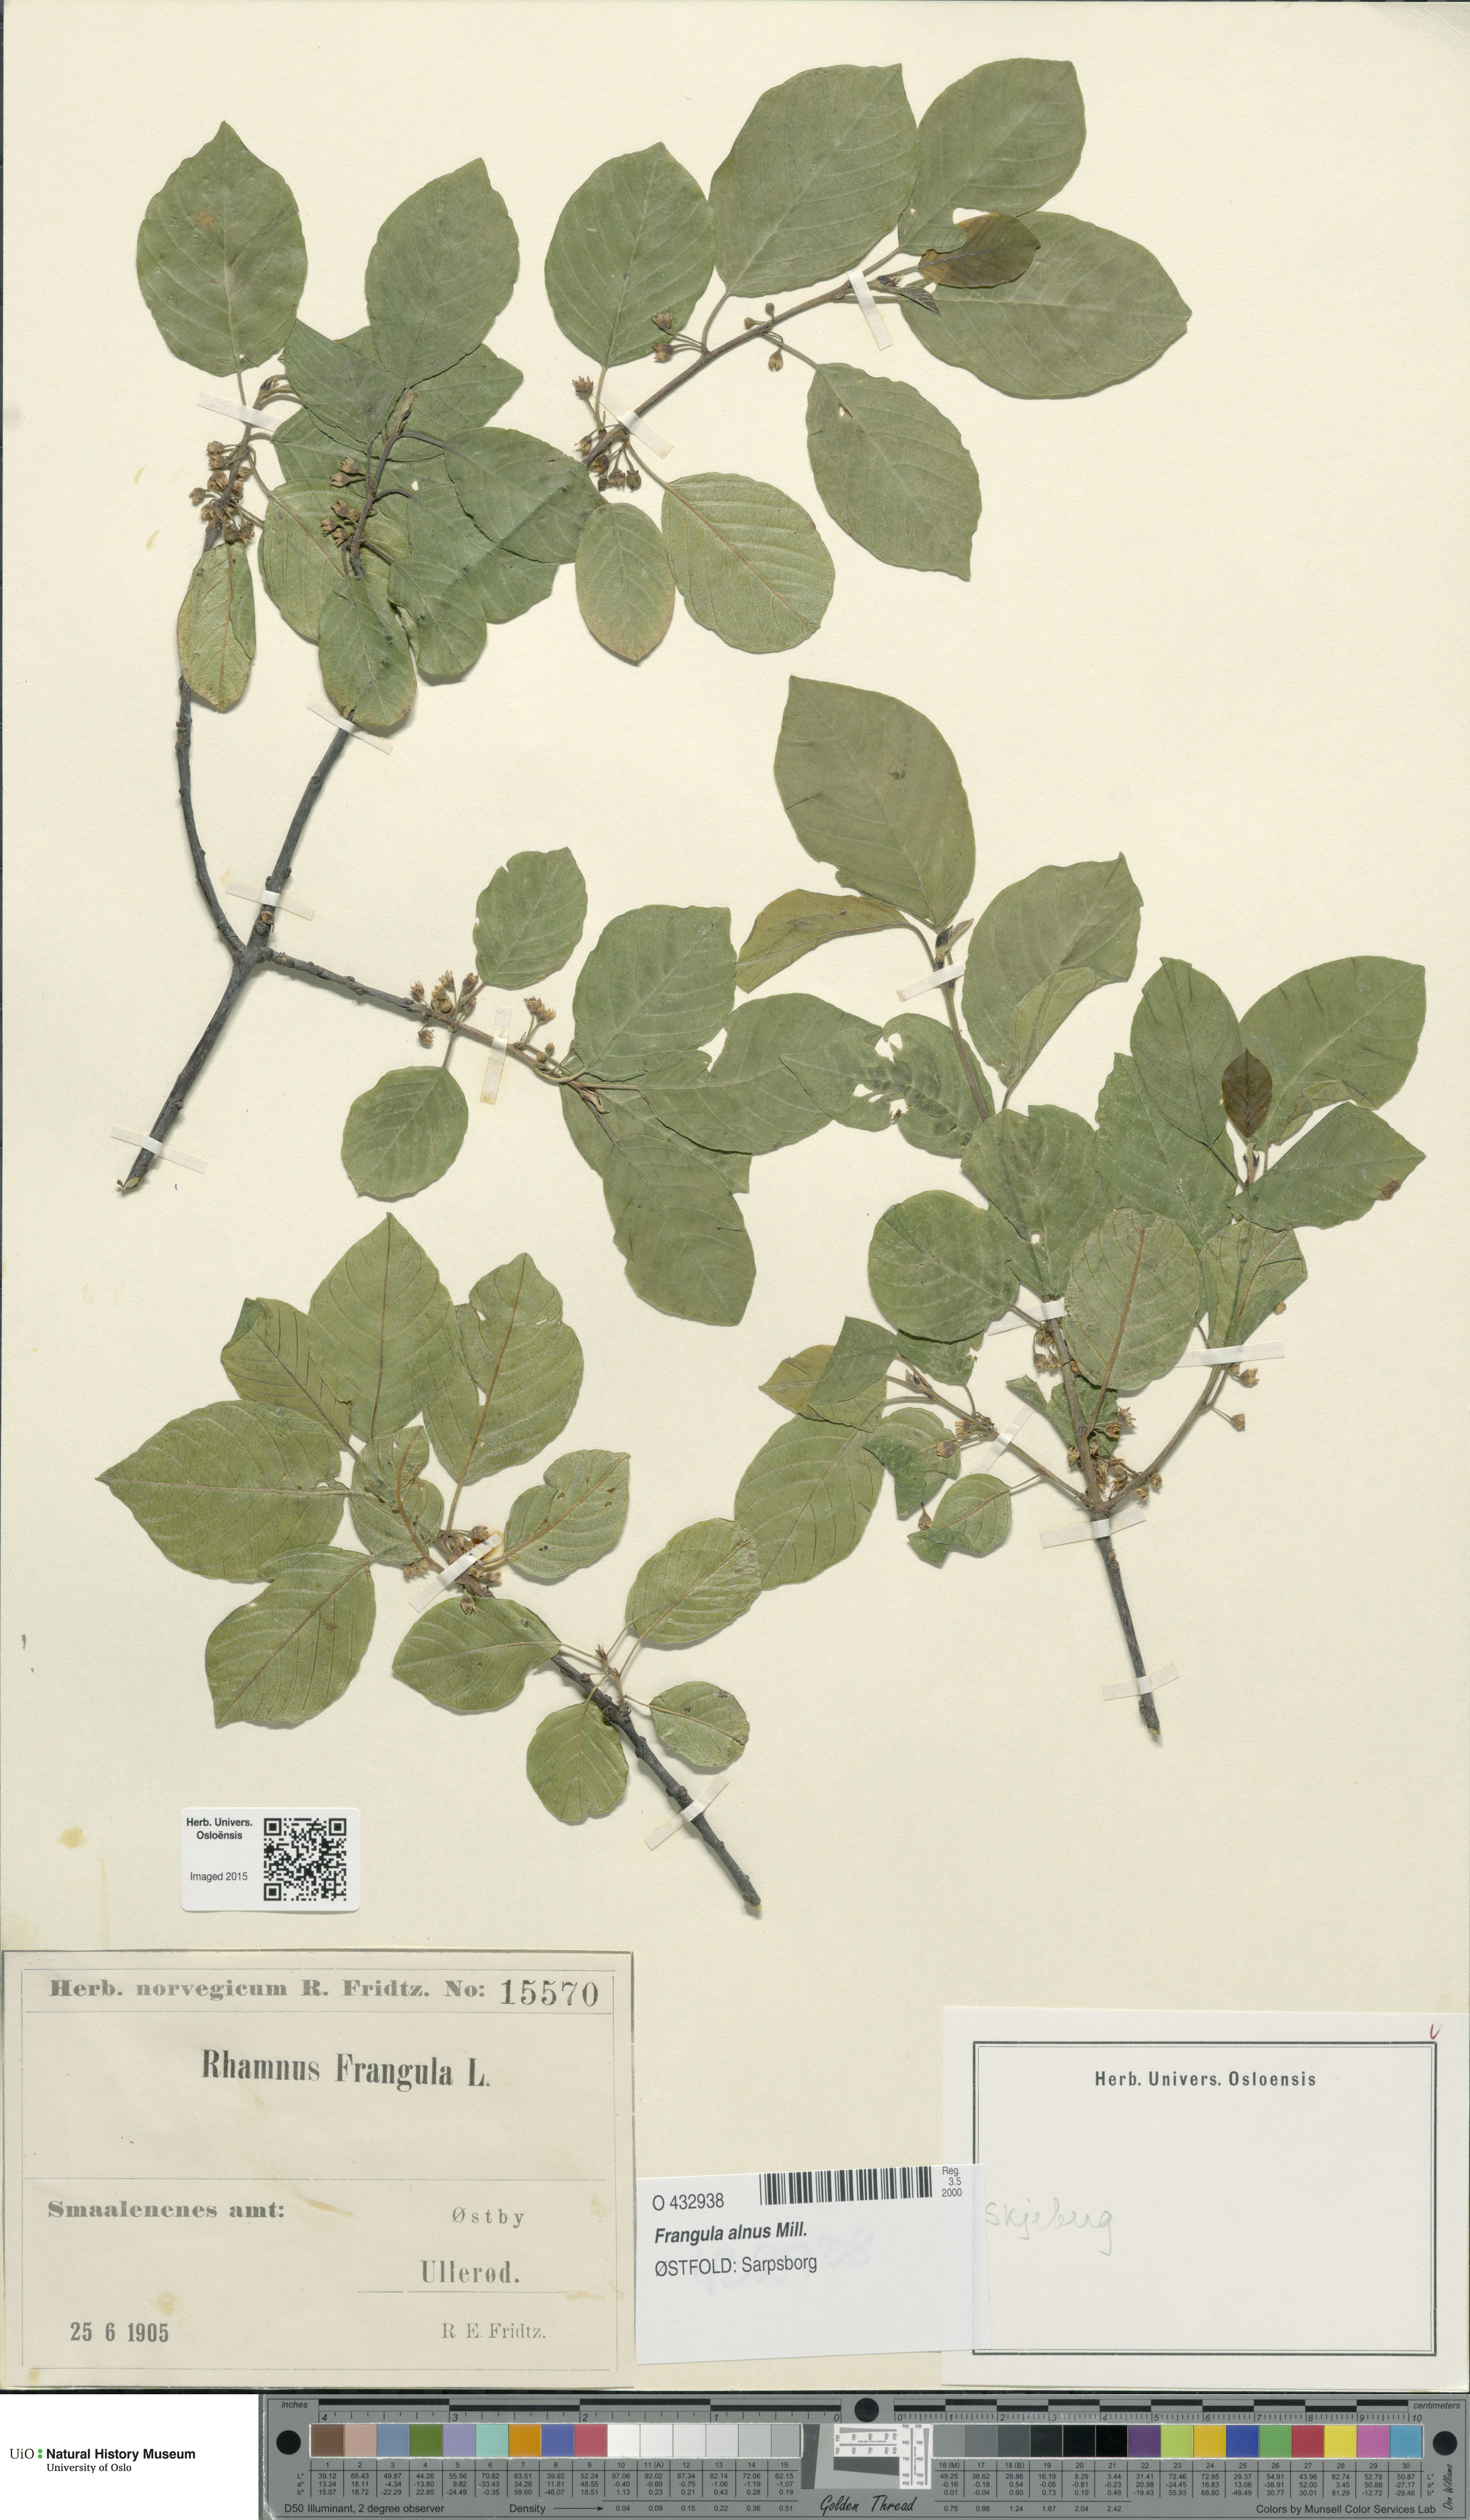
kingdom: Plantae
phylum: Tracheophyta
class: Magnoliopsida
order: Rosales
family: Rhamnaceae
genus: Frangula
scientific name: Frangula alnus
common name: Alder buckthorn
